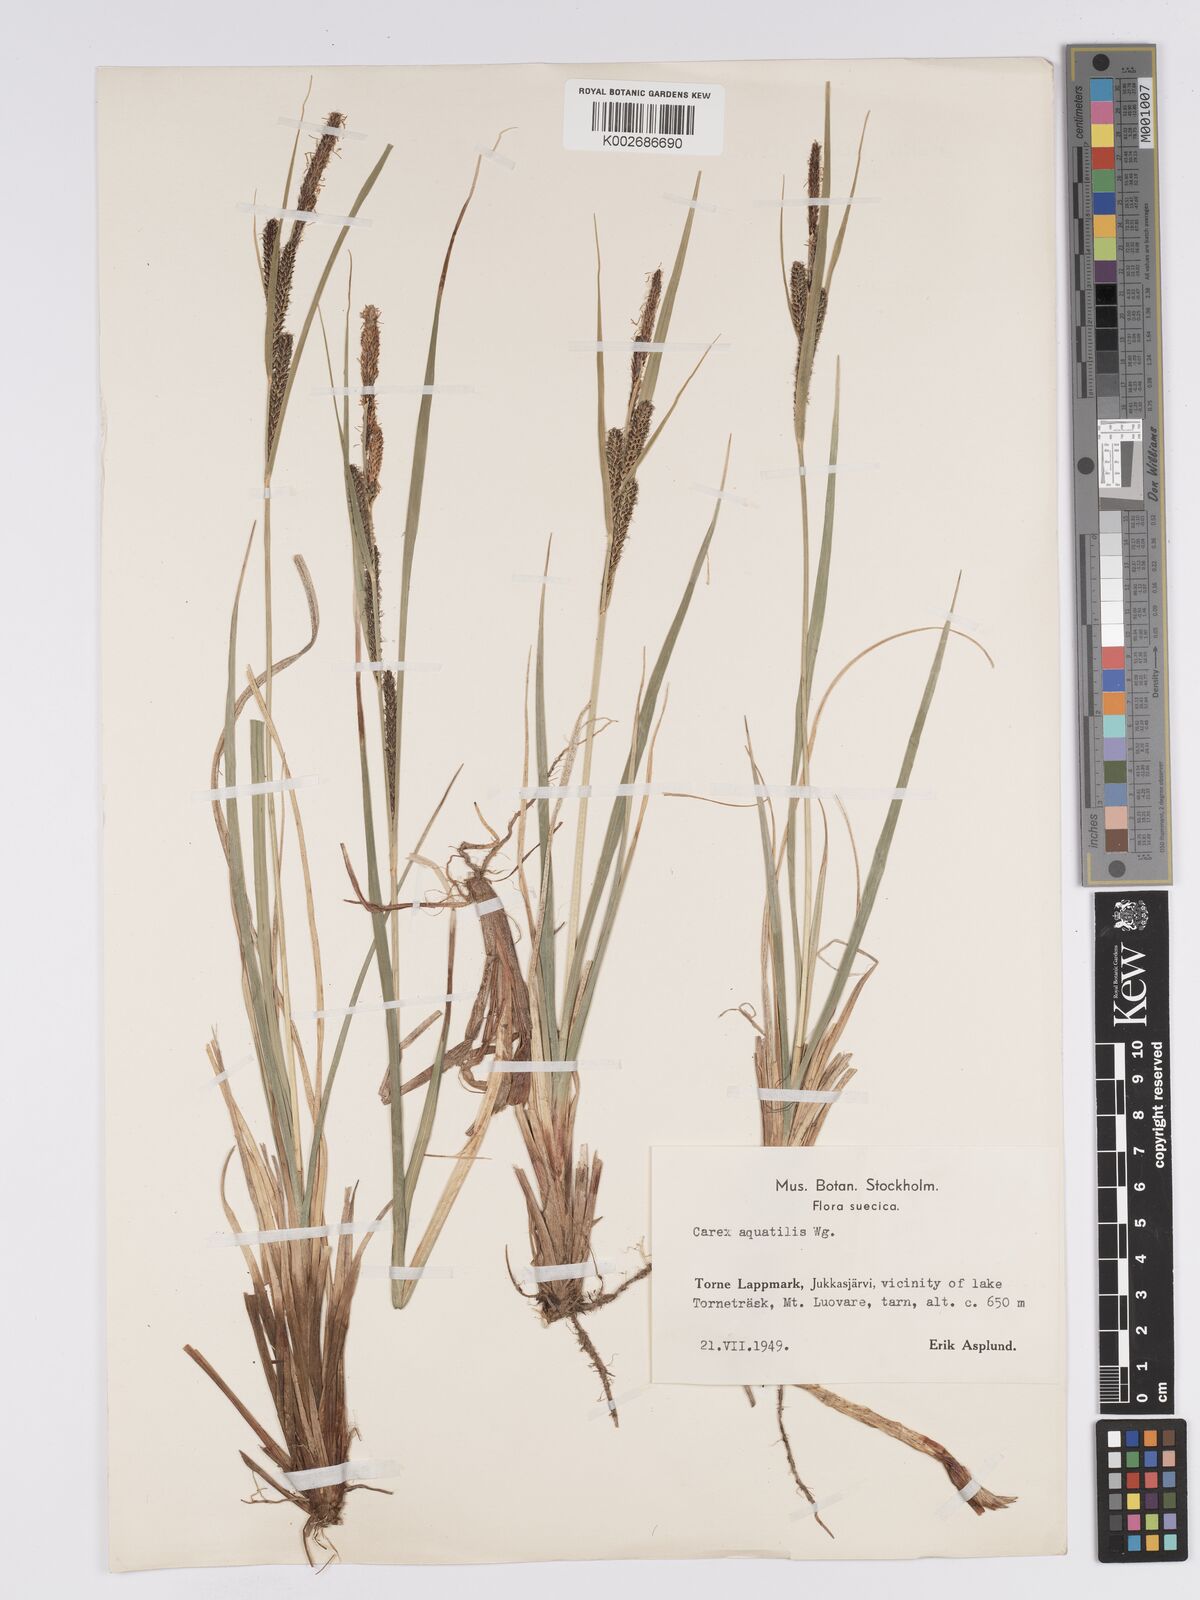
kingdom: Plantae
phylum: Tracheophyta
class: Liliopsida
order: Poales
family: Cyperaceae
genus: Carex
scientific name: Carex aquatilis
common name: Water sedge
